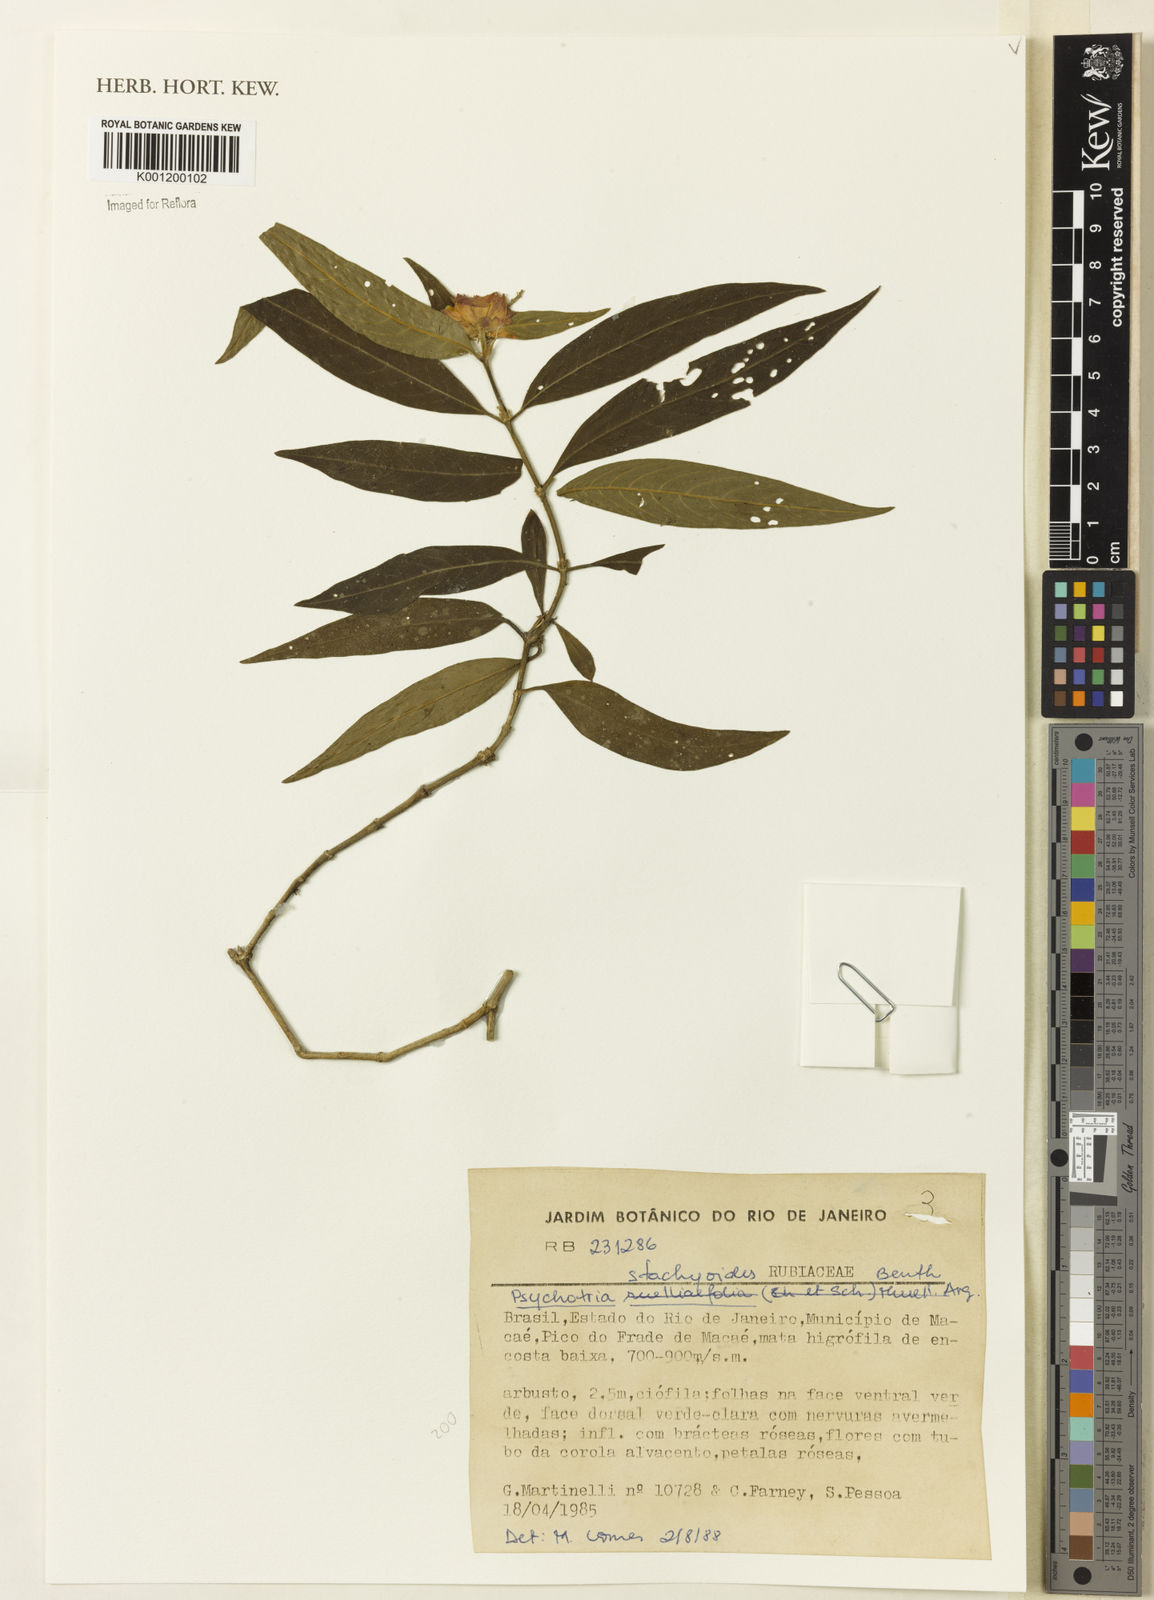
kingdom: Plantae
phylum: Tracheophyta
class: Magnoliopsida
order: Gentianales
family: Rubiaceae
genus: Psychotria
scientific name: Psychotria stachyoides
